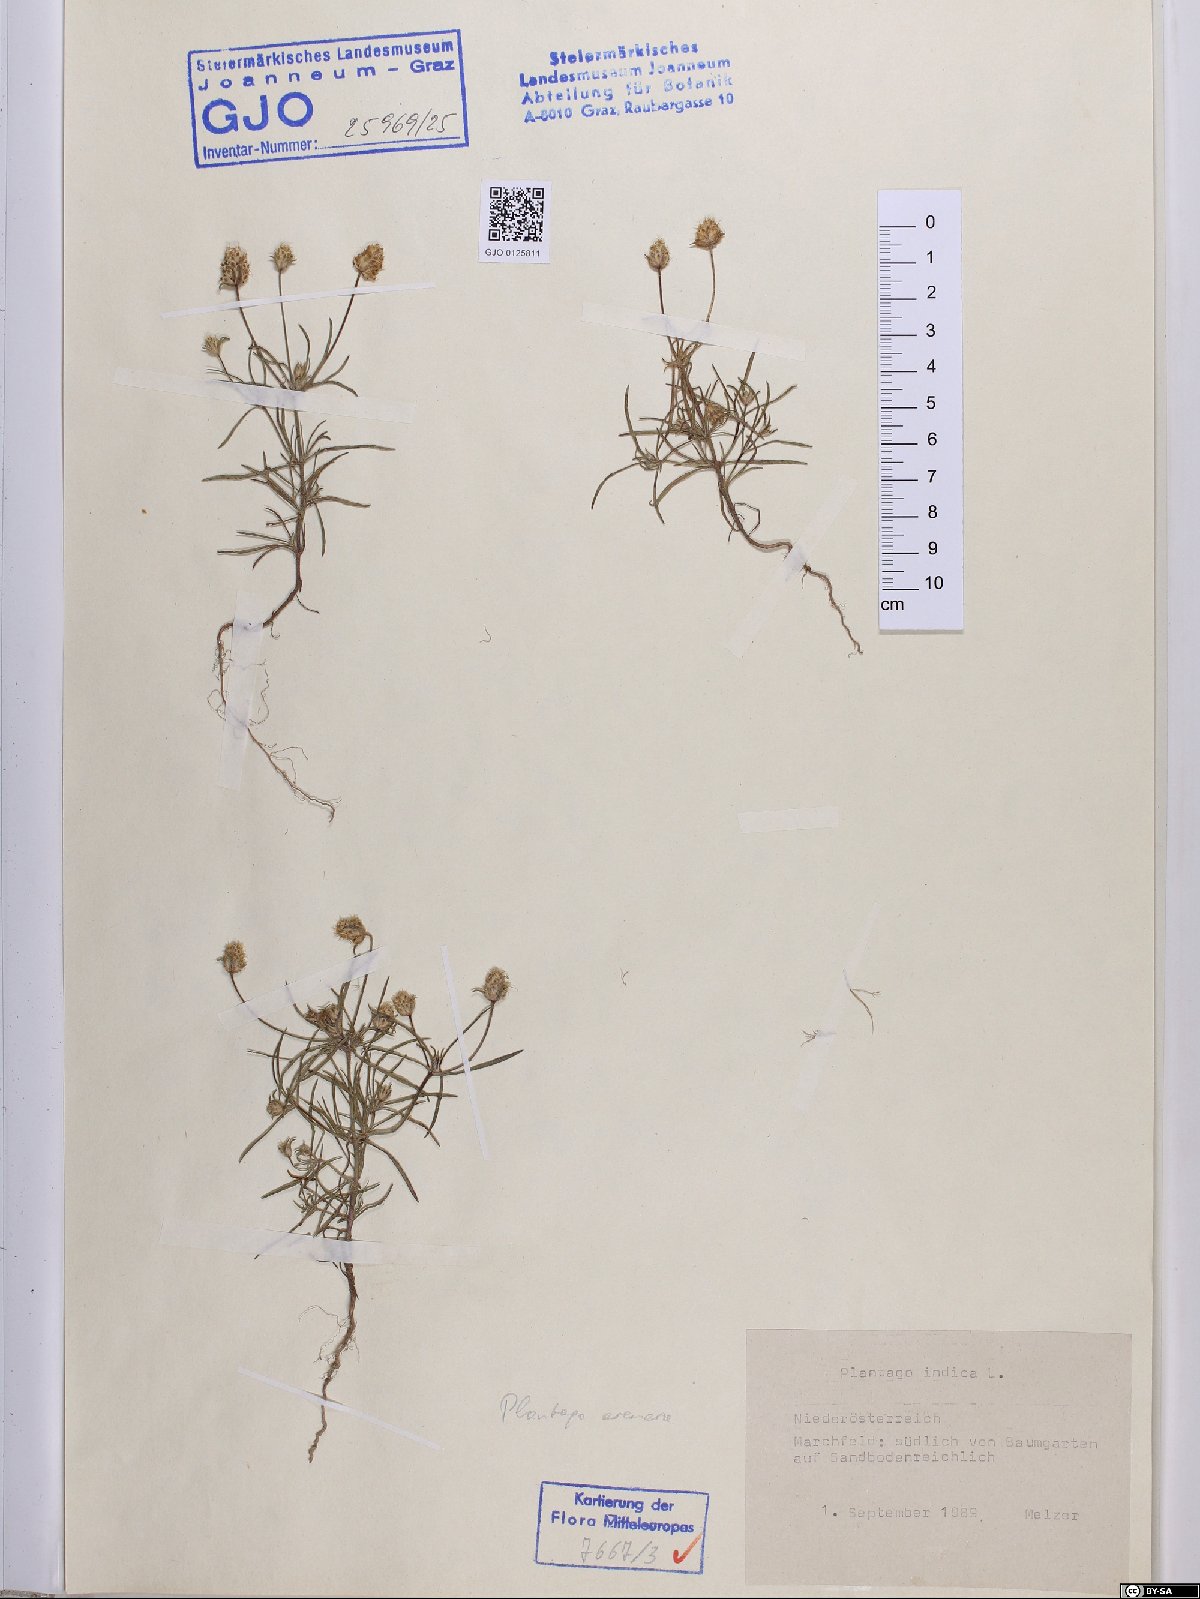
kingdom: Plantae
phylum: Tracheophyta
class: Magnoliopsida
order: Lamiales
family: Plantaginaceae
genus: Plantago
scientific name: Plantago arenaria
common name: Branched plantain
